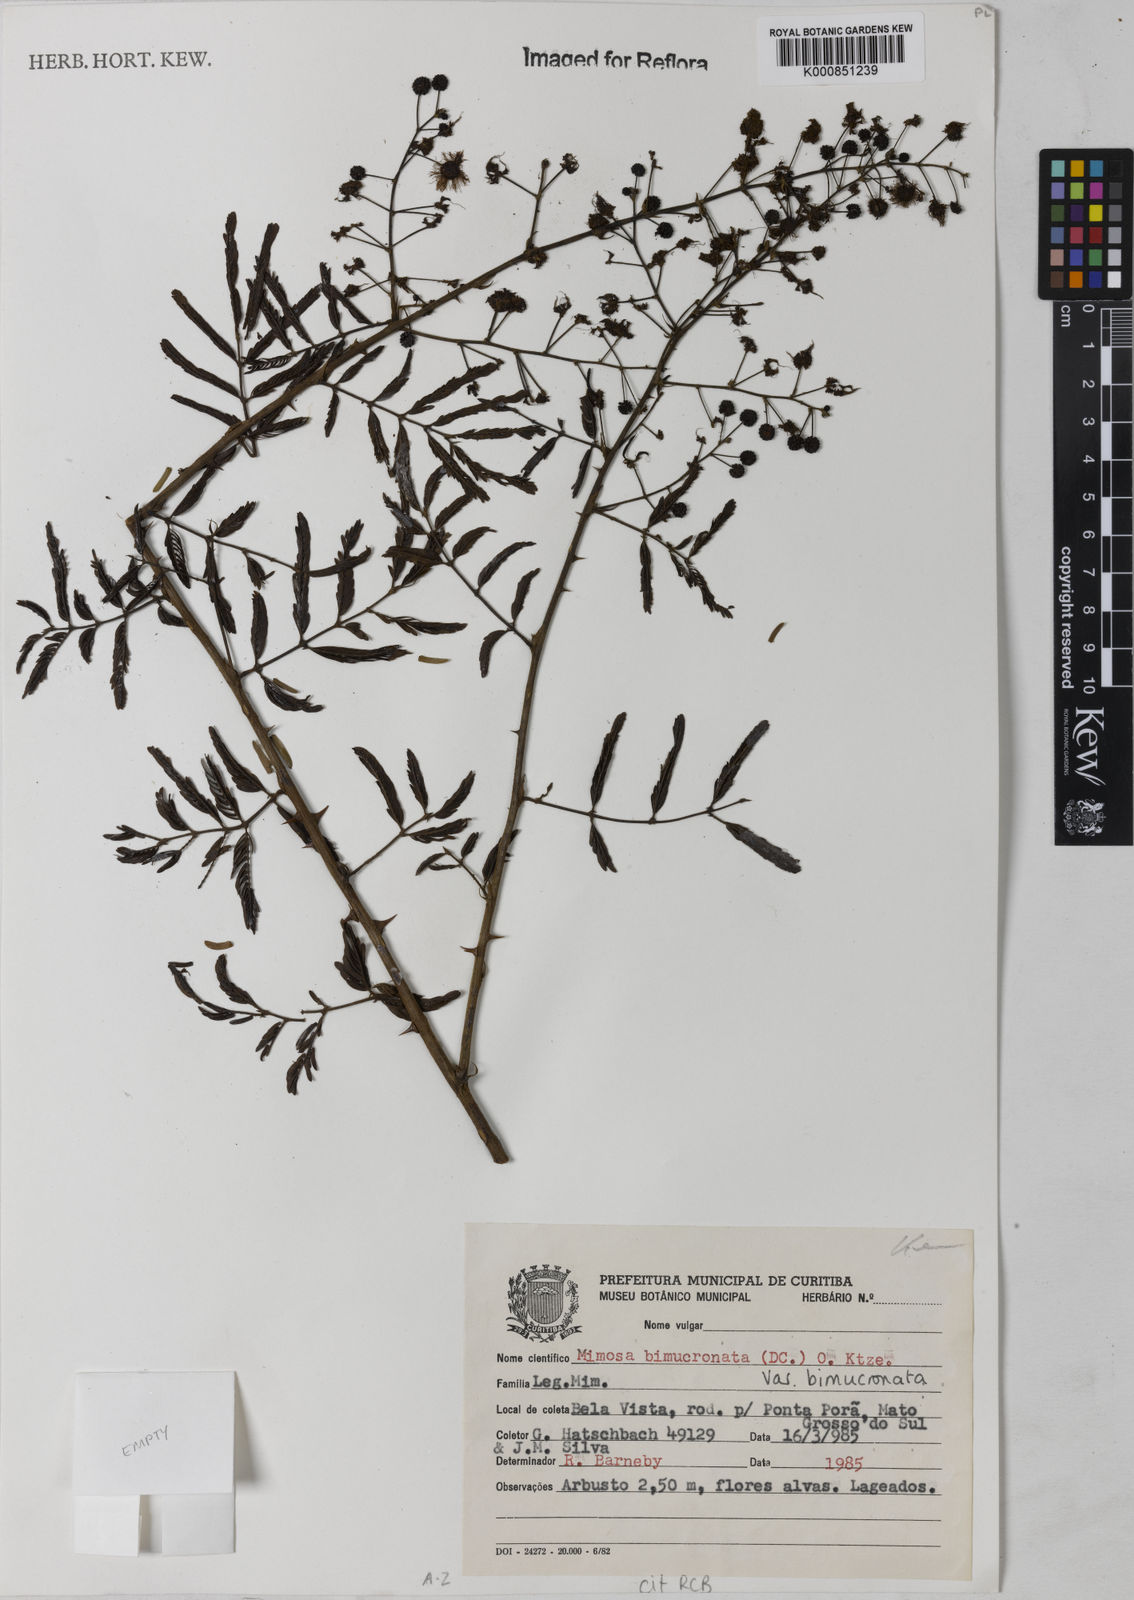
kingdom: Plantae
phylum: Tracheophyta
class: Magnoliopsida
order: Fabales
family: Fabaceae
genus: Mimosa
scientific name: Mimosa bimucronata
